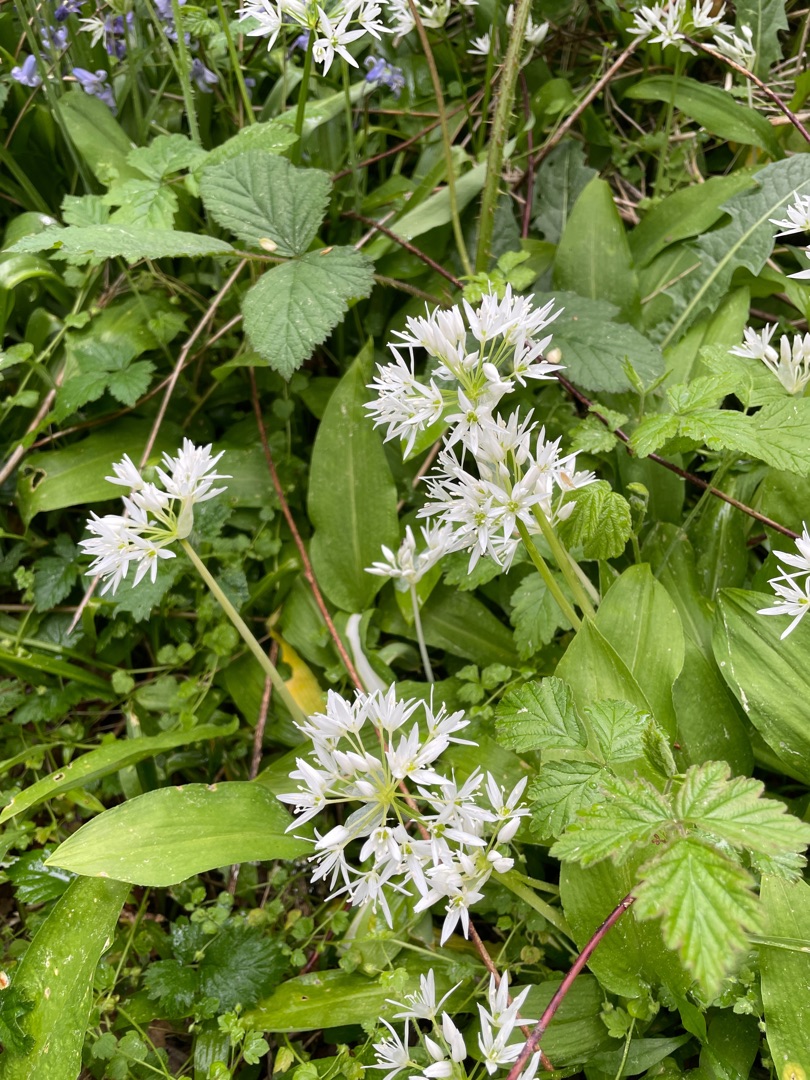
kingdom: Plantae
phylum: Tracheophyta
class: Liliopsida
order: Asparagales
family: Amaryllidaceae
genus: Allium
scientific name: Allium ursinum
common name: Rams-løg
